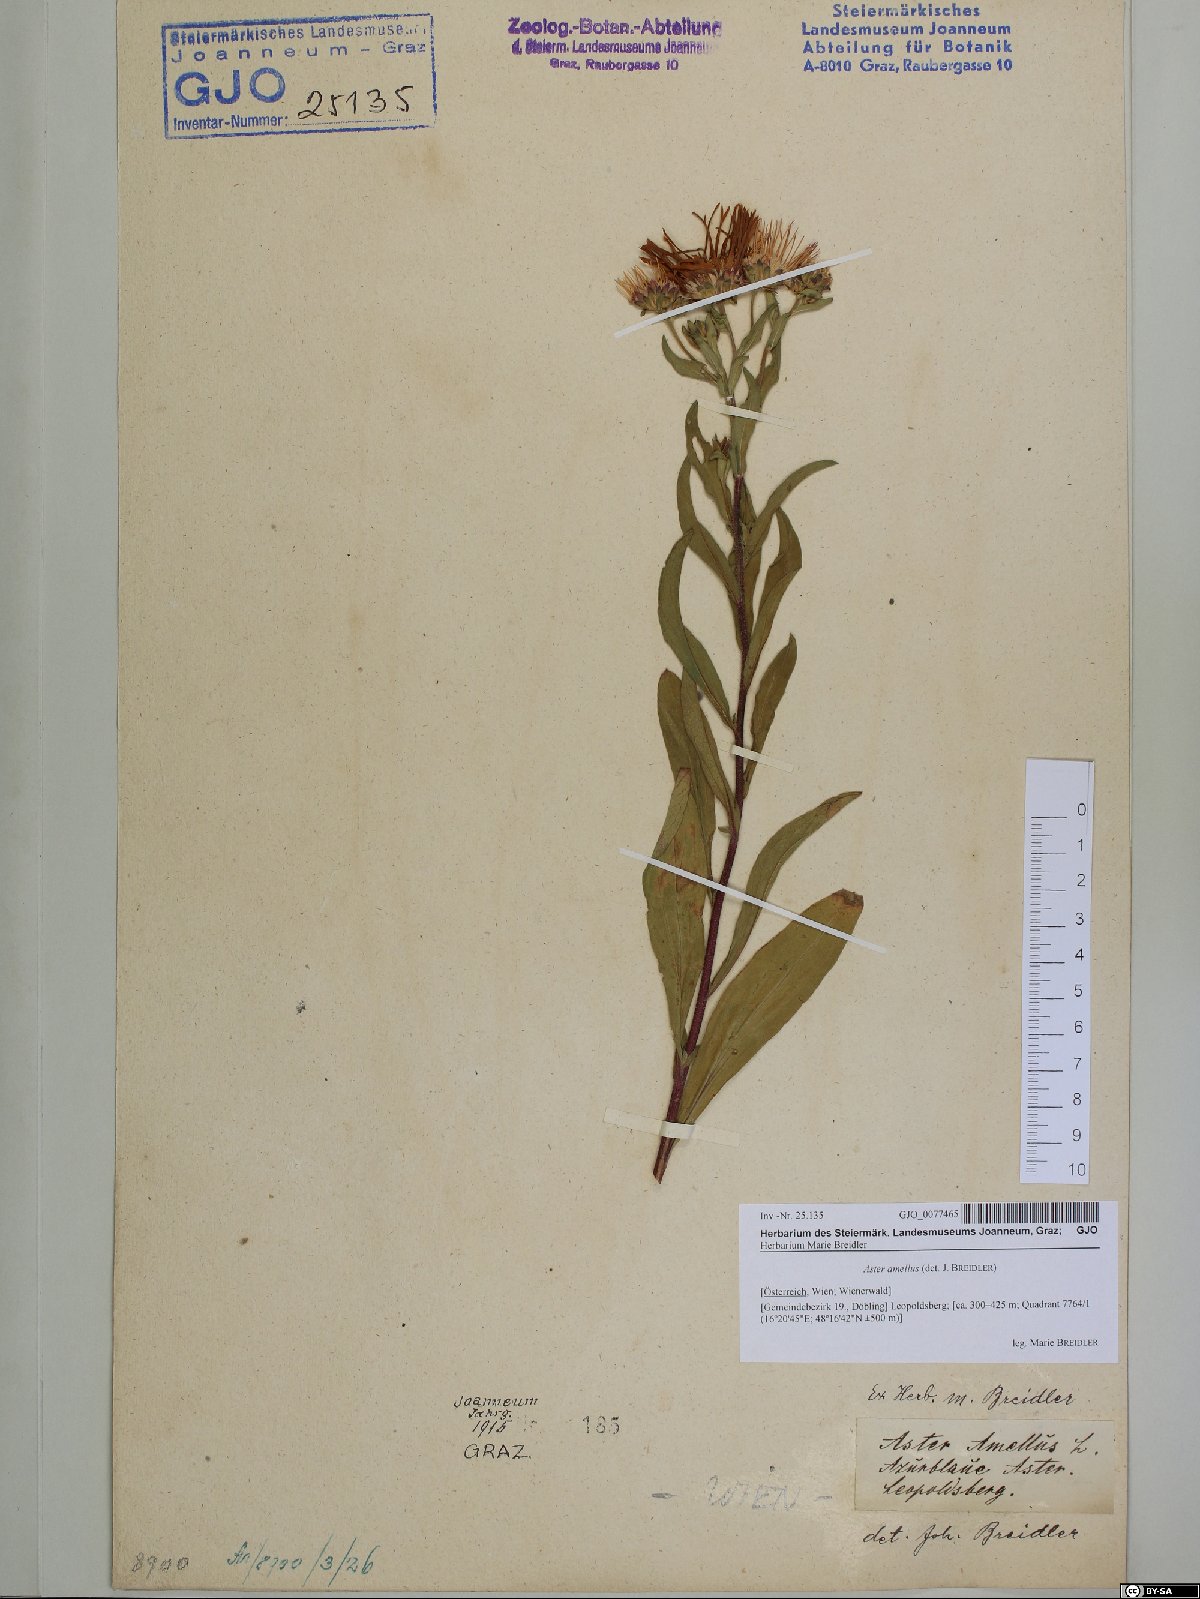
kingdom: Plantae
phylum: Tracheophyta
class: Magnoliopsida
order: Asterales
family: Asteraceae
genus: Aster
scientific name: Aster amellus
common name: European michaelmas daisy
